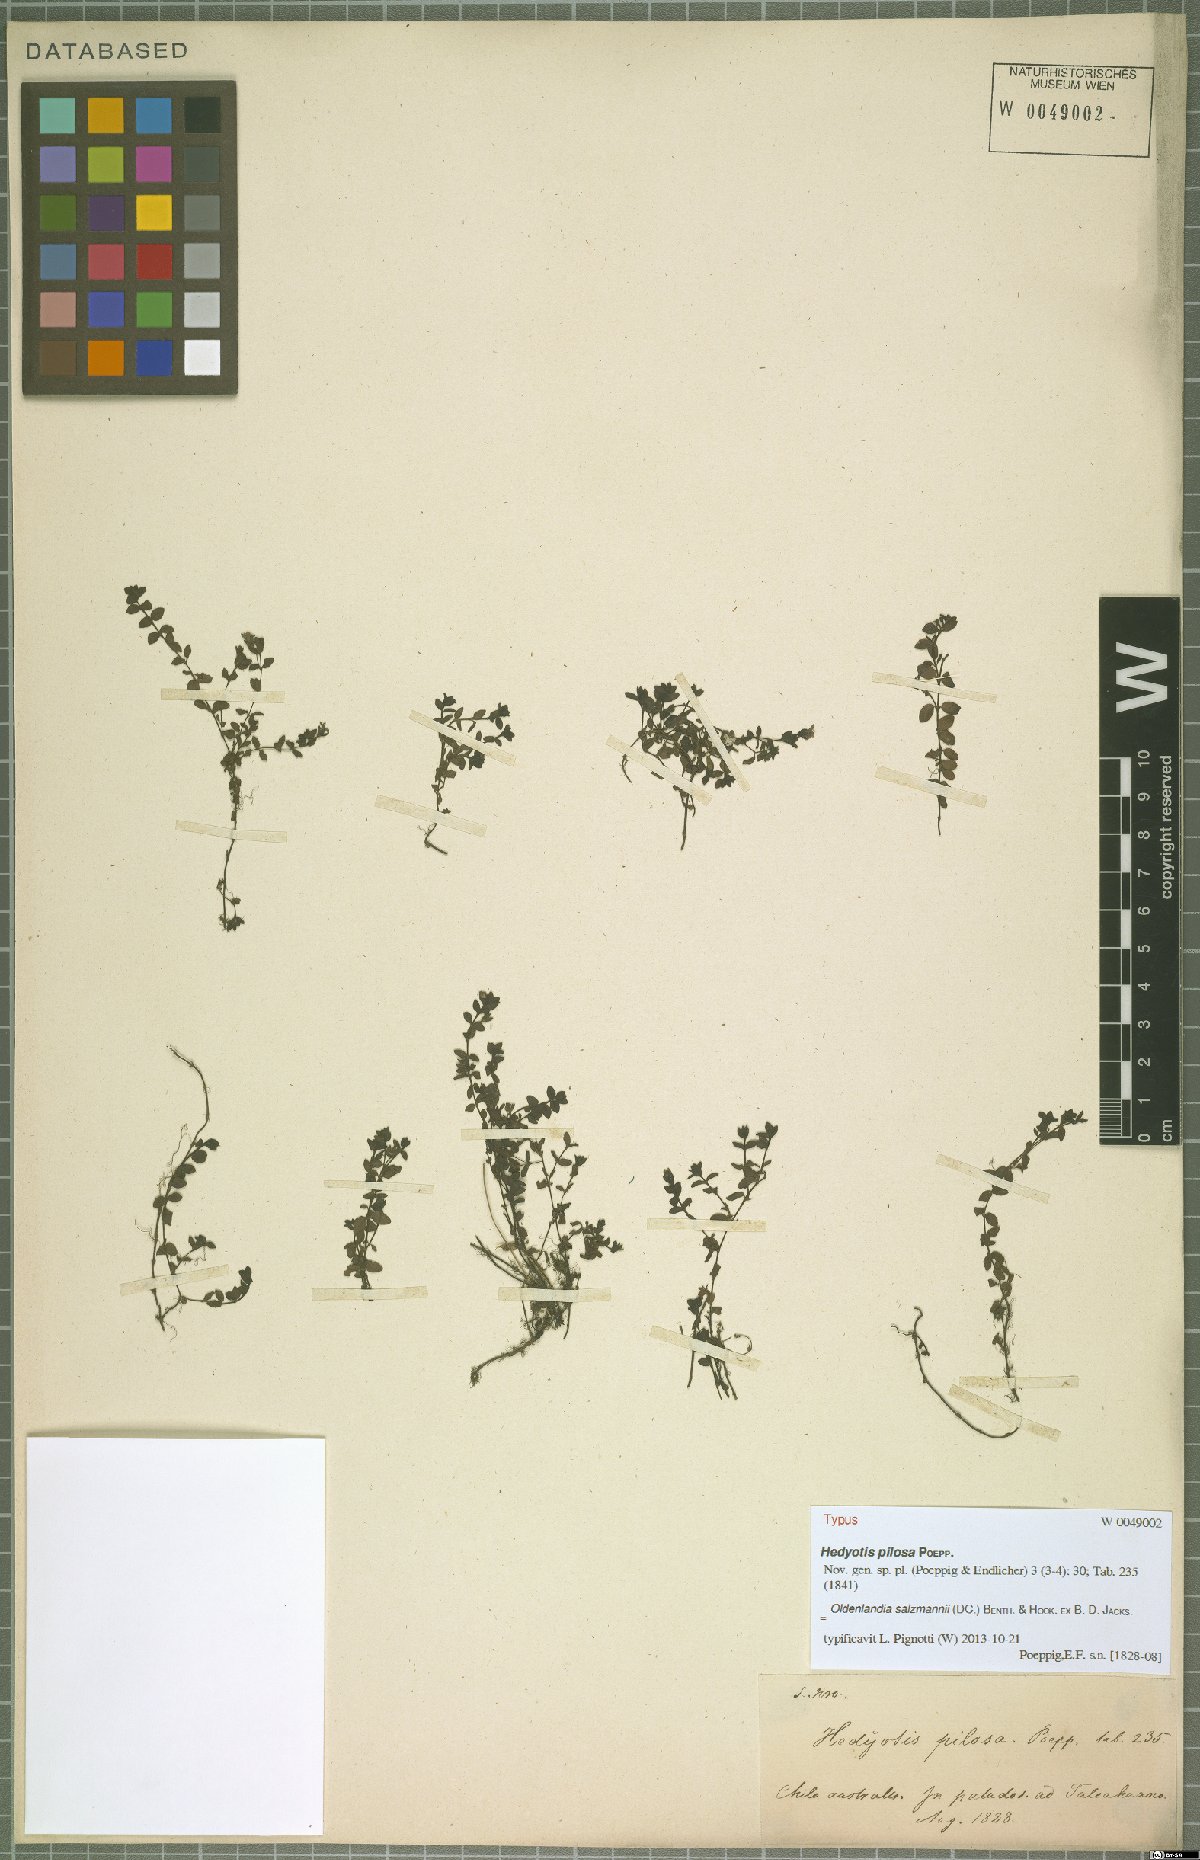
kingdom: Plantae
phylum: Tracheophyta
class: Magnoliopsida
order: Gentianales
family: Rubiaceae
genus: Oldenlandia
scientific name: Oldenlandia salzmannii
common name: Salzmann's mille graines
